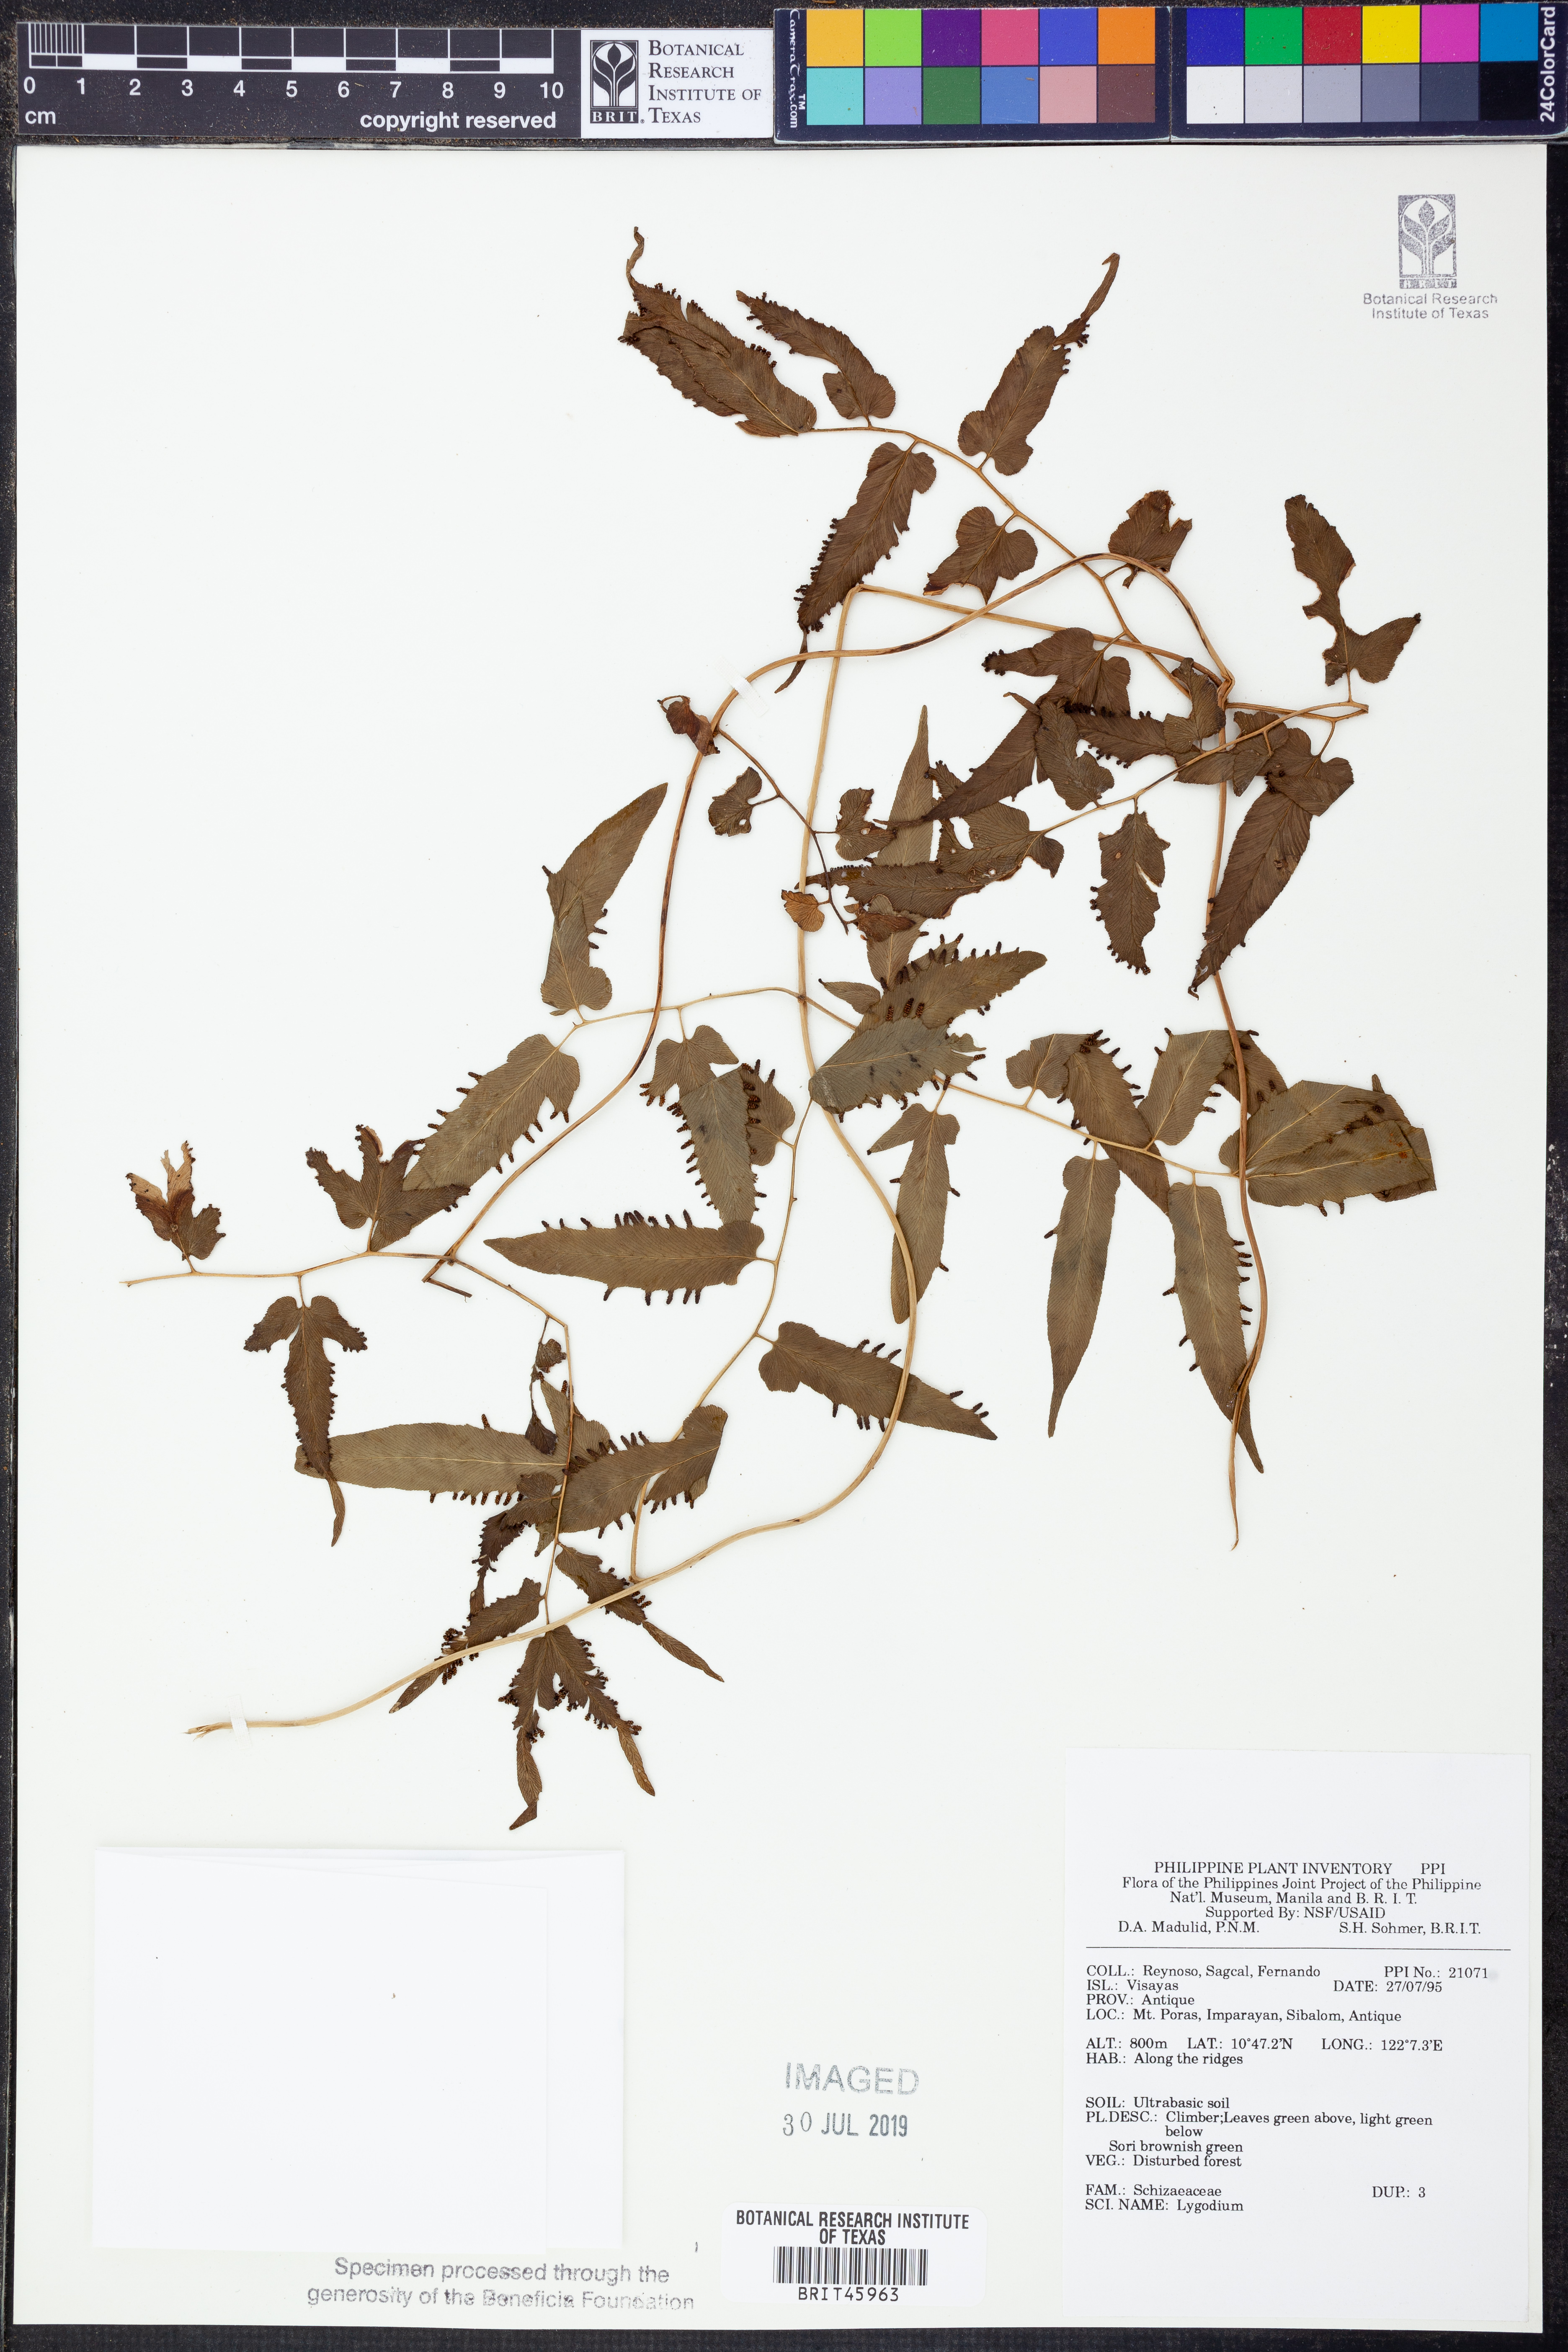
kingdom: Plantae
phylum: Tracheophyta
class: Polypodiopsida
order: Schizaeales
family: Lygodiaceae
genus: Lygodium
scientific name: Lygodium
